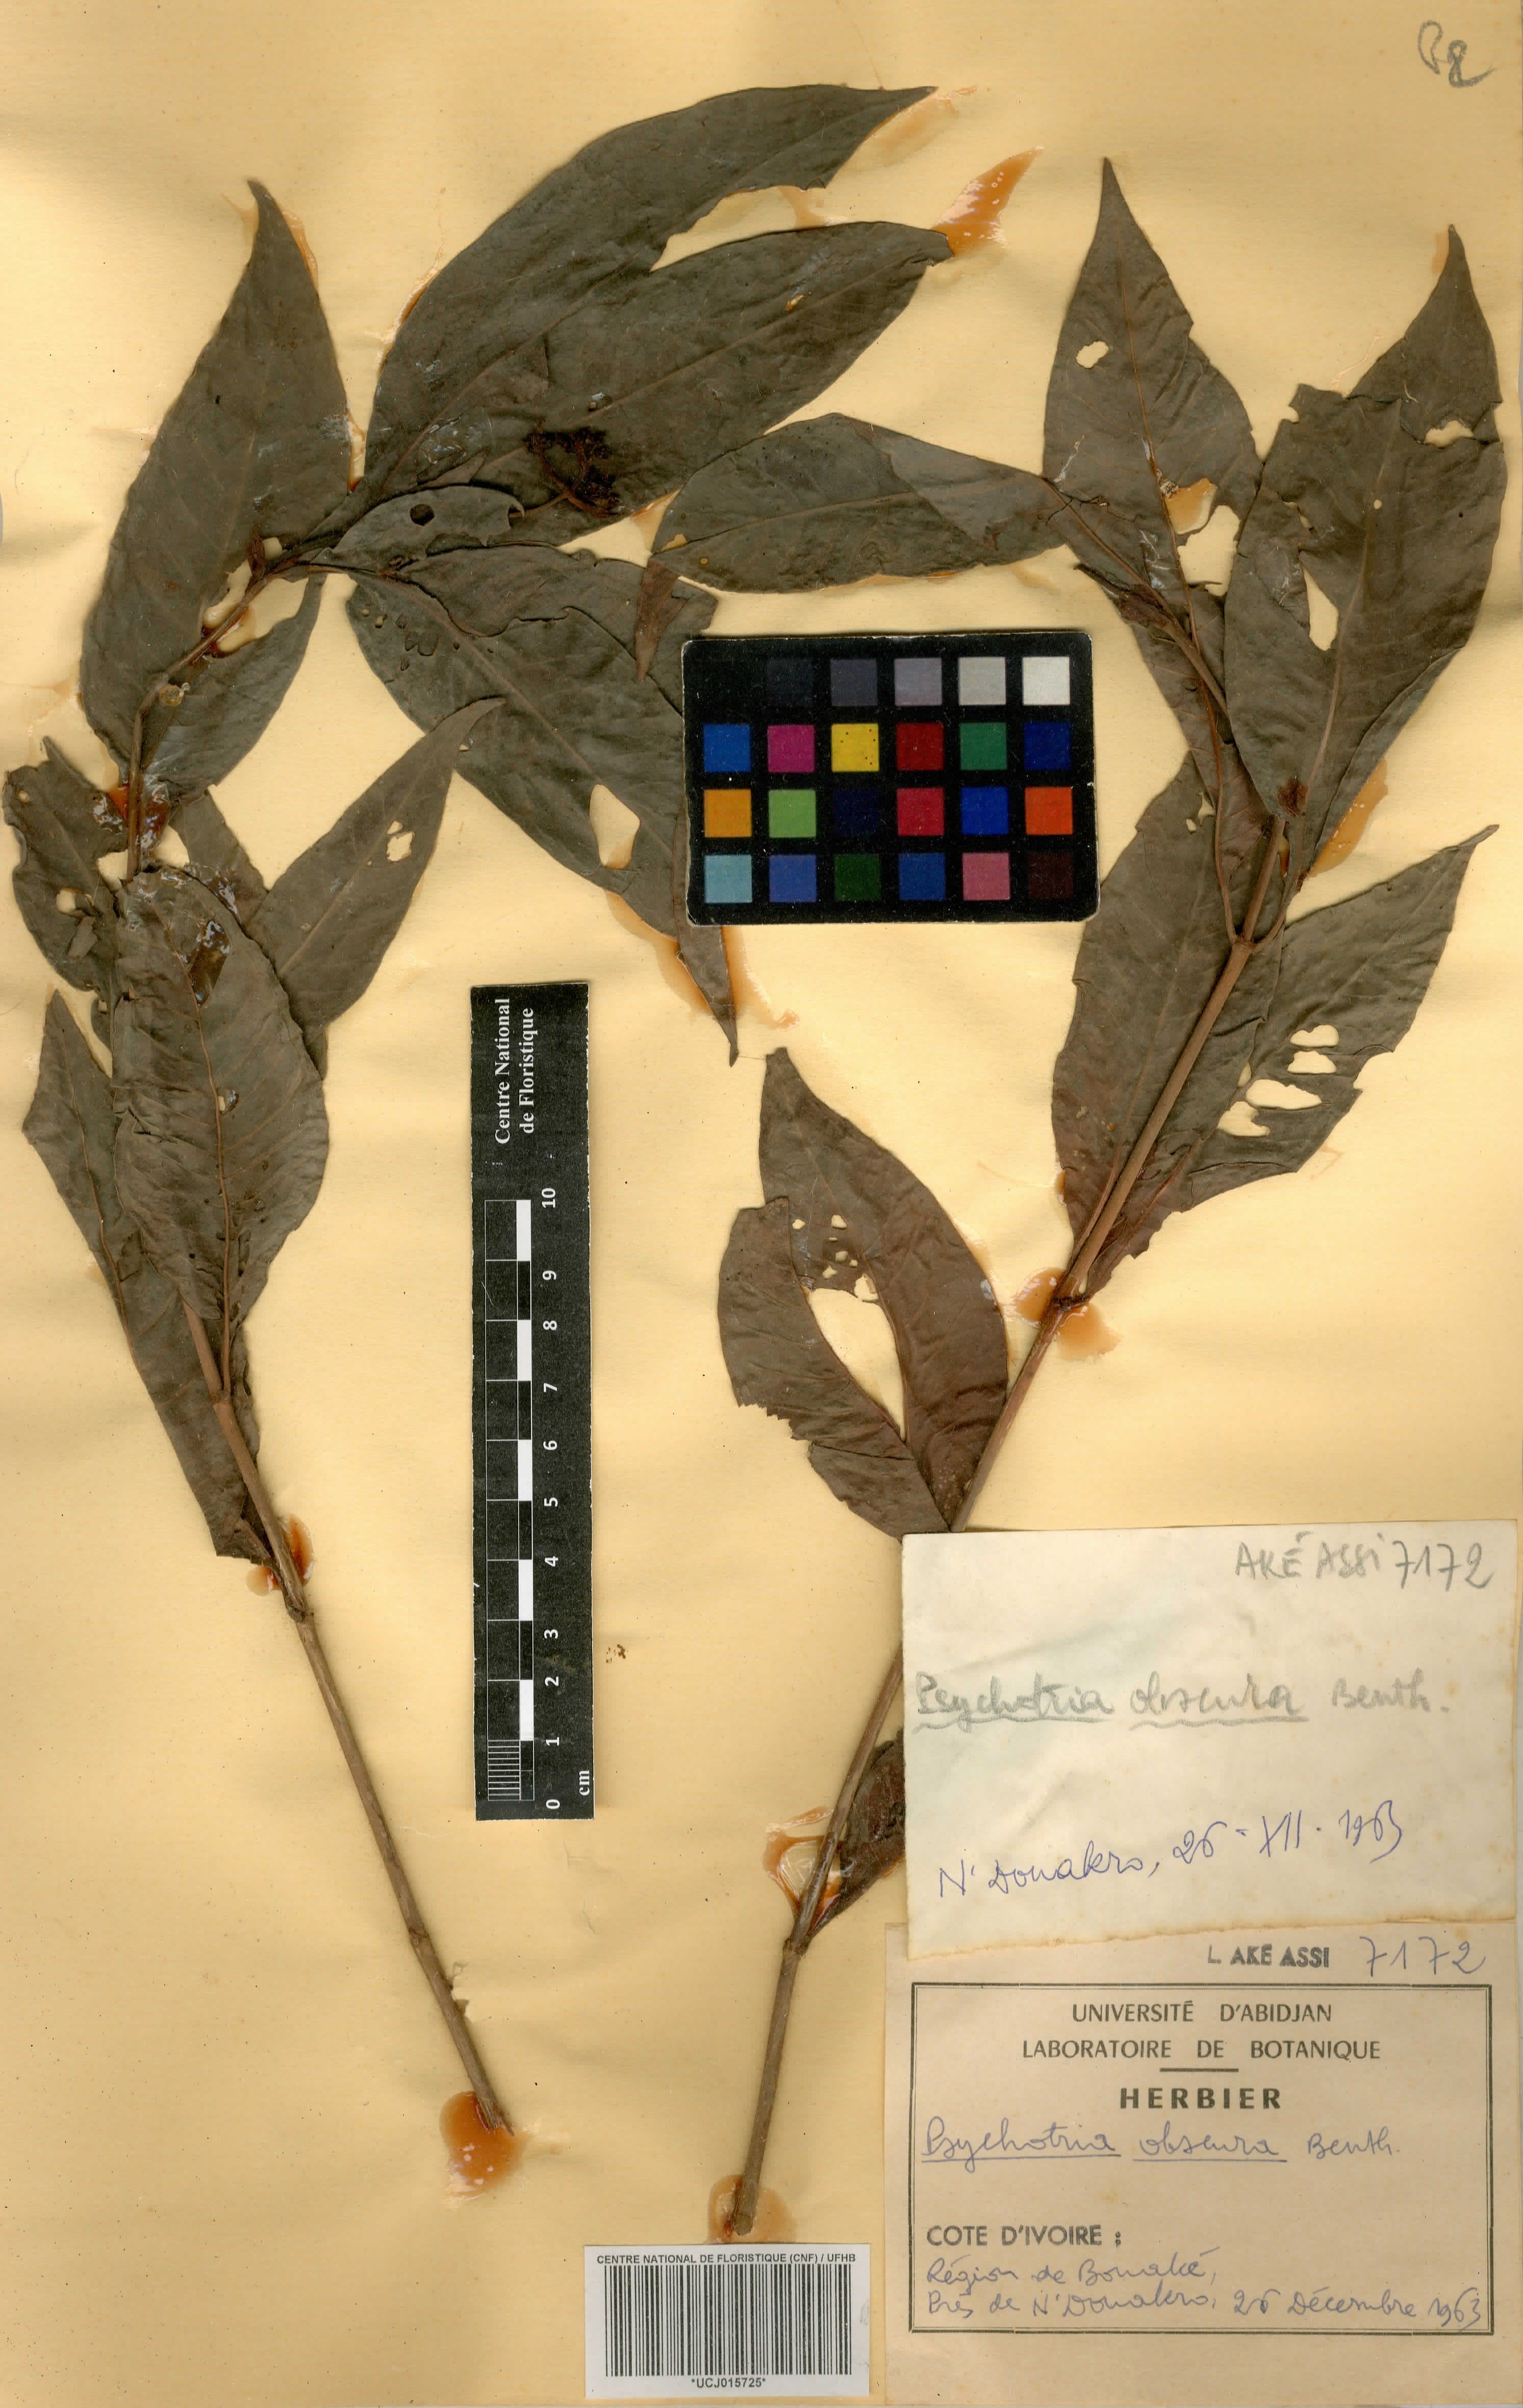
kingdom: Plantae
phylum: Tracheophyta
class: Magnoliopsida
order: Gentianales
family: Rubiaceae
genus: Psychotria
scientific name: Psychotria schweinfurthii
